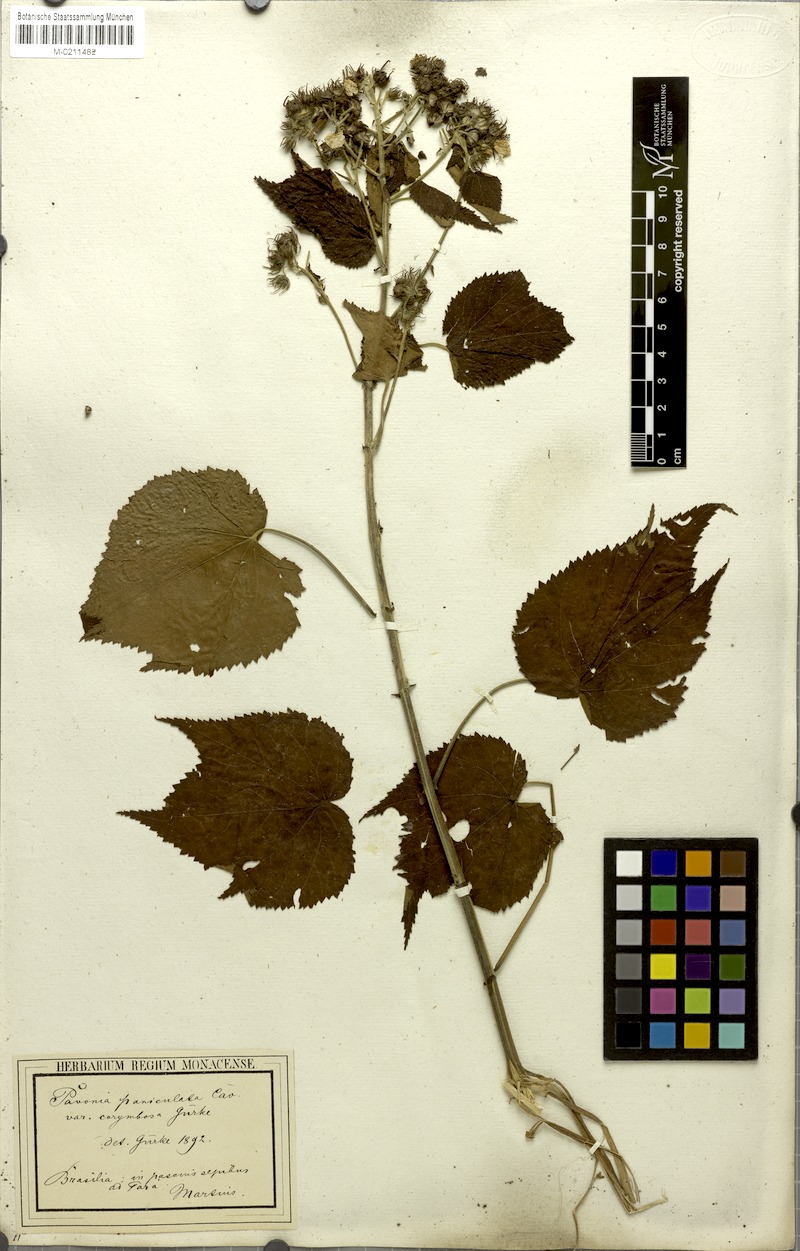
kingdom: Plantae
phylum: Tracheophyta
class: Magnoliopsida
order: Malvales
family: Malvaceae
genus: Pavonia
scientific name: Pavonia paniculata
